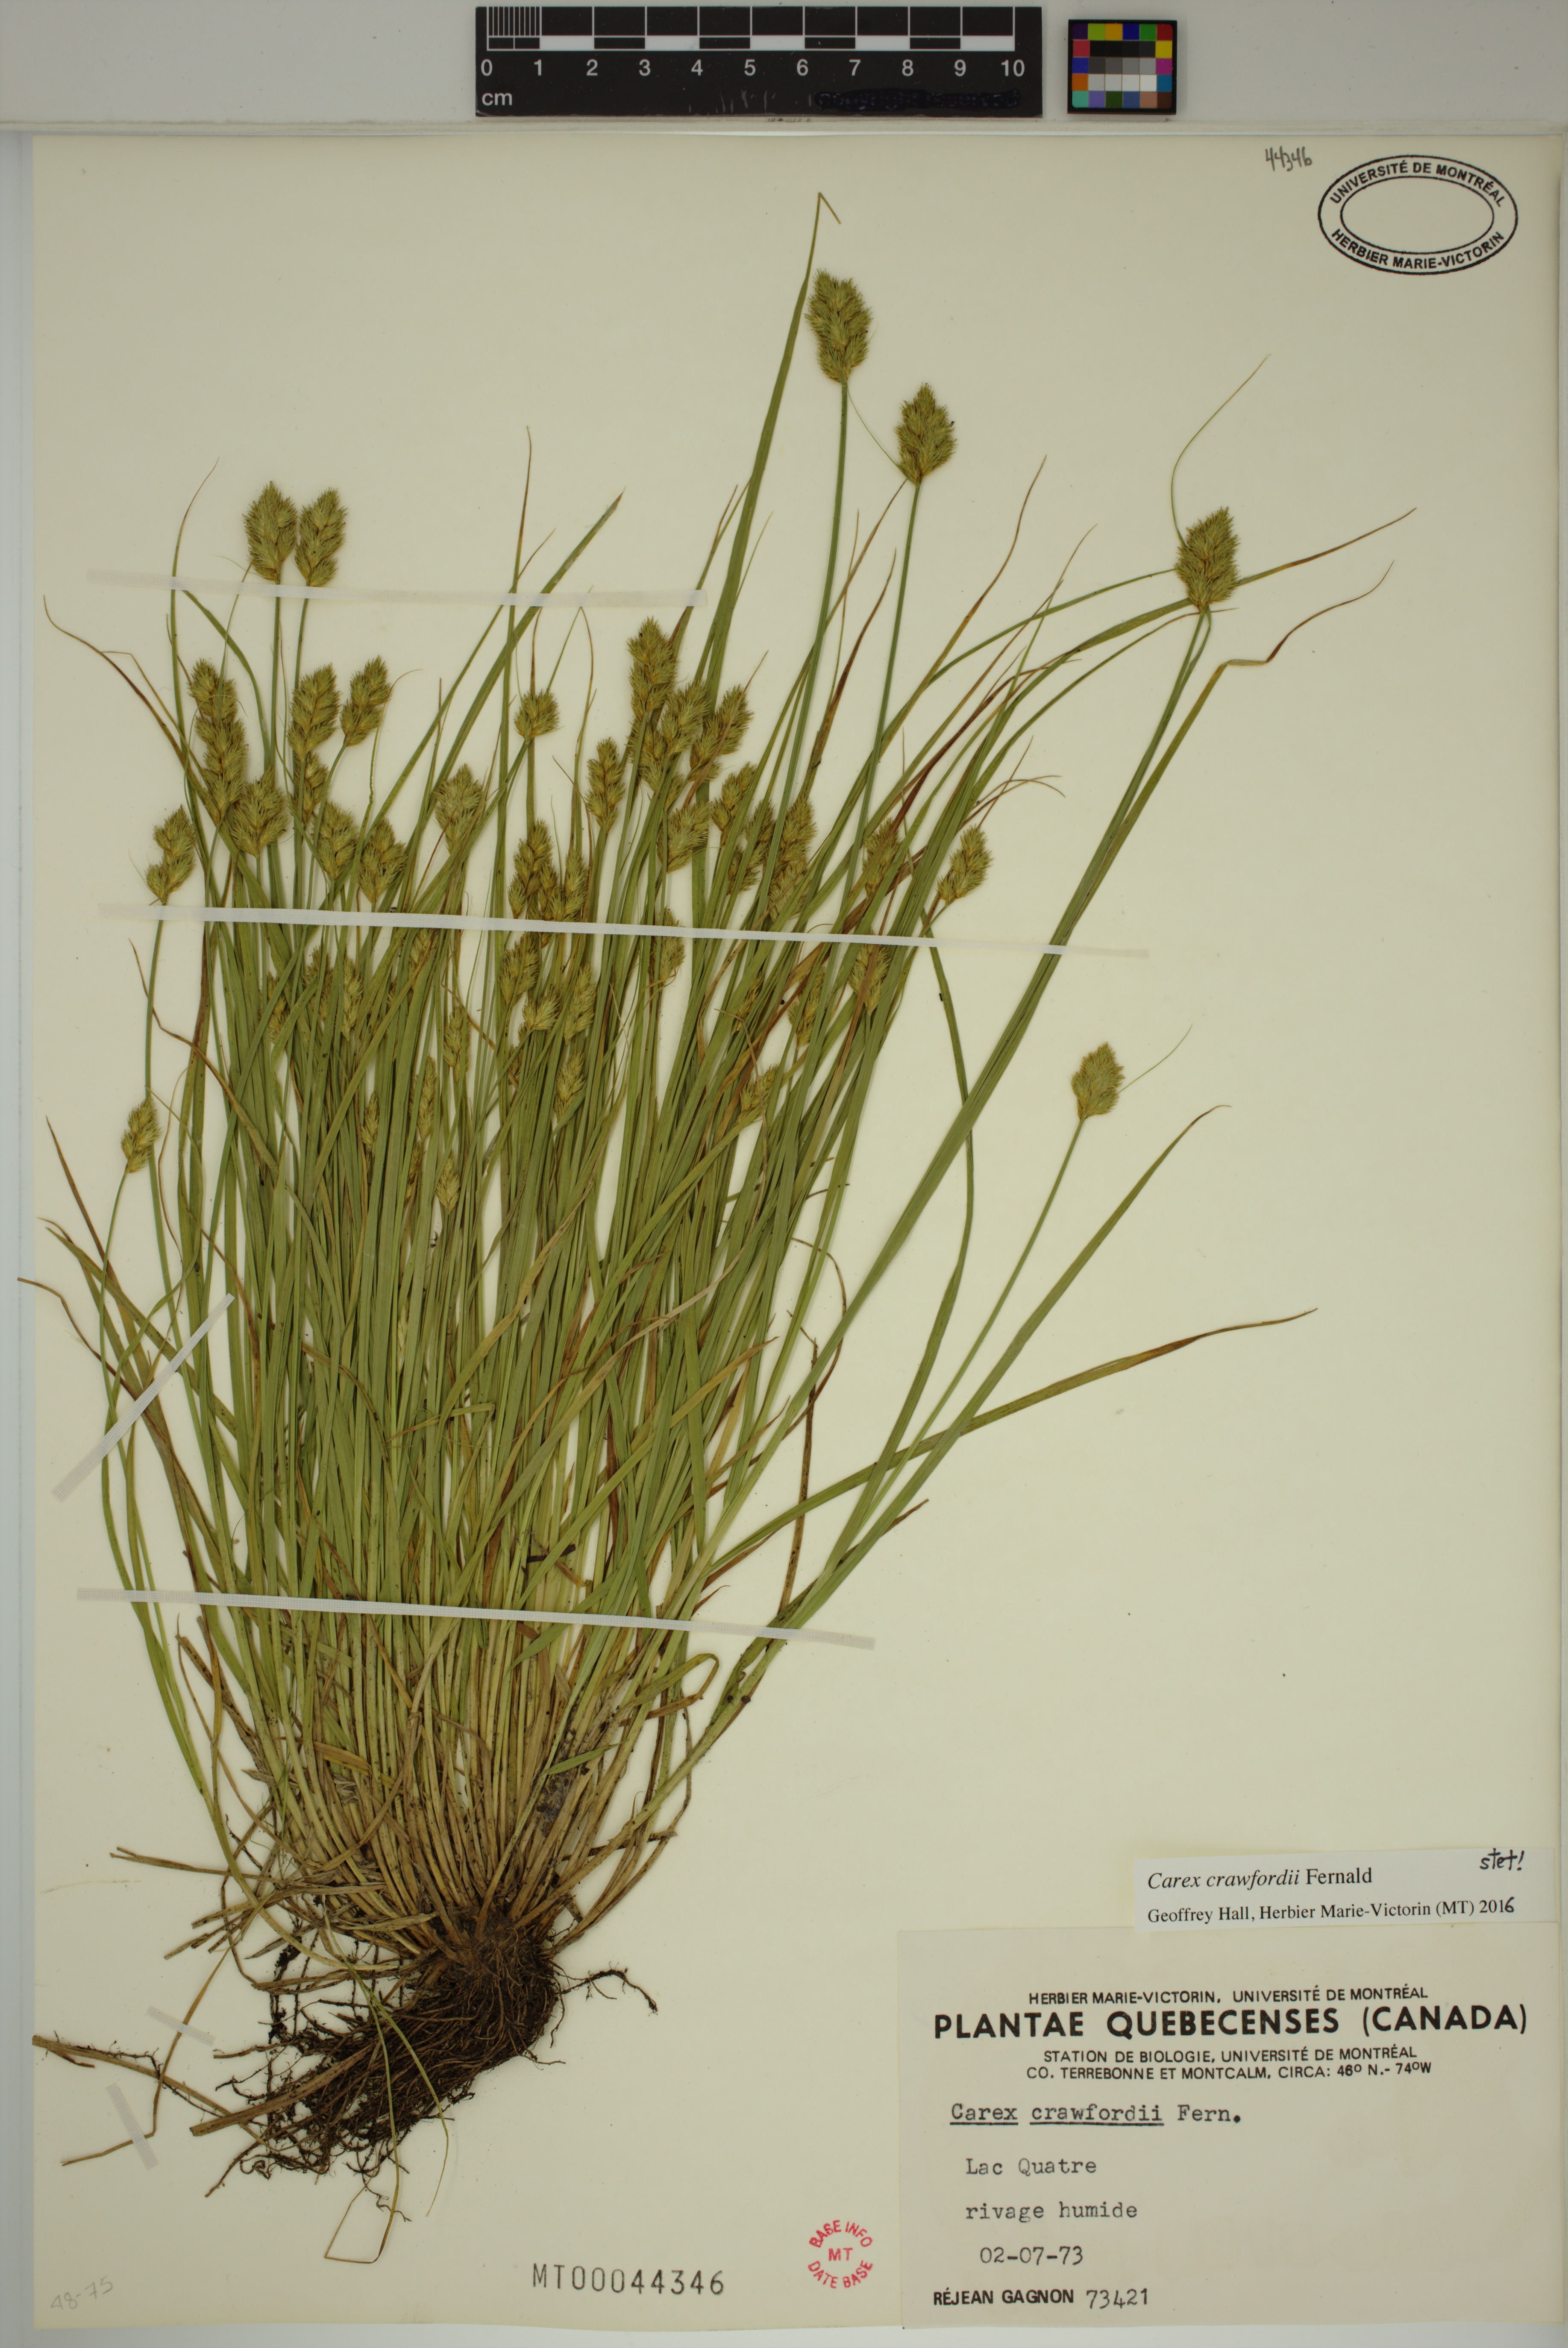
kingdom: Plantae
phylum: Tracheophyta
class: Liliopsida
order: Poales
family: Cyperaceae
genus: Carex
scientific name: Carex crawfordii
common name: Crawford's sedge
